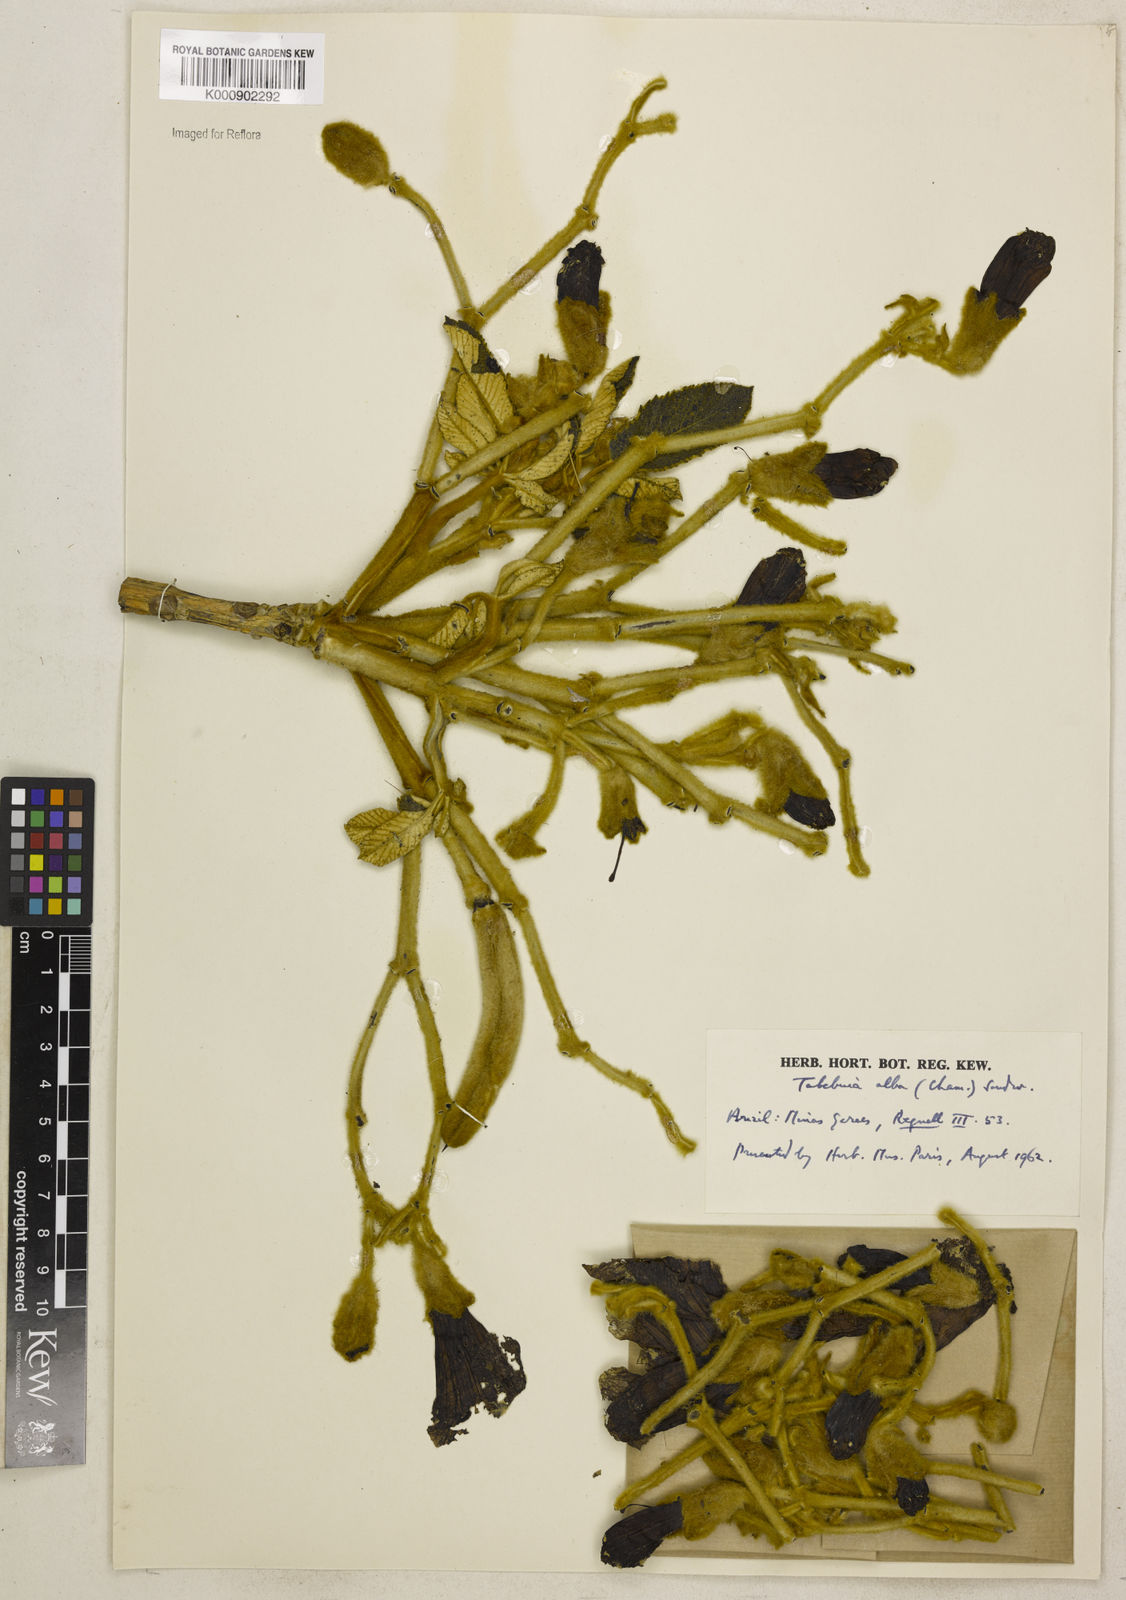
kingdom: Plantae
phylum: Tracheophyta
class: Magnoliopsida
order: Lamiales
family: Bignoniaceae
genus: Handroanthus
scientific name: Handroanthus albus
